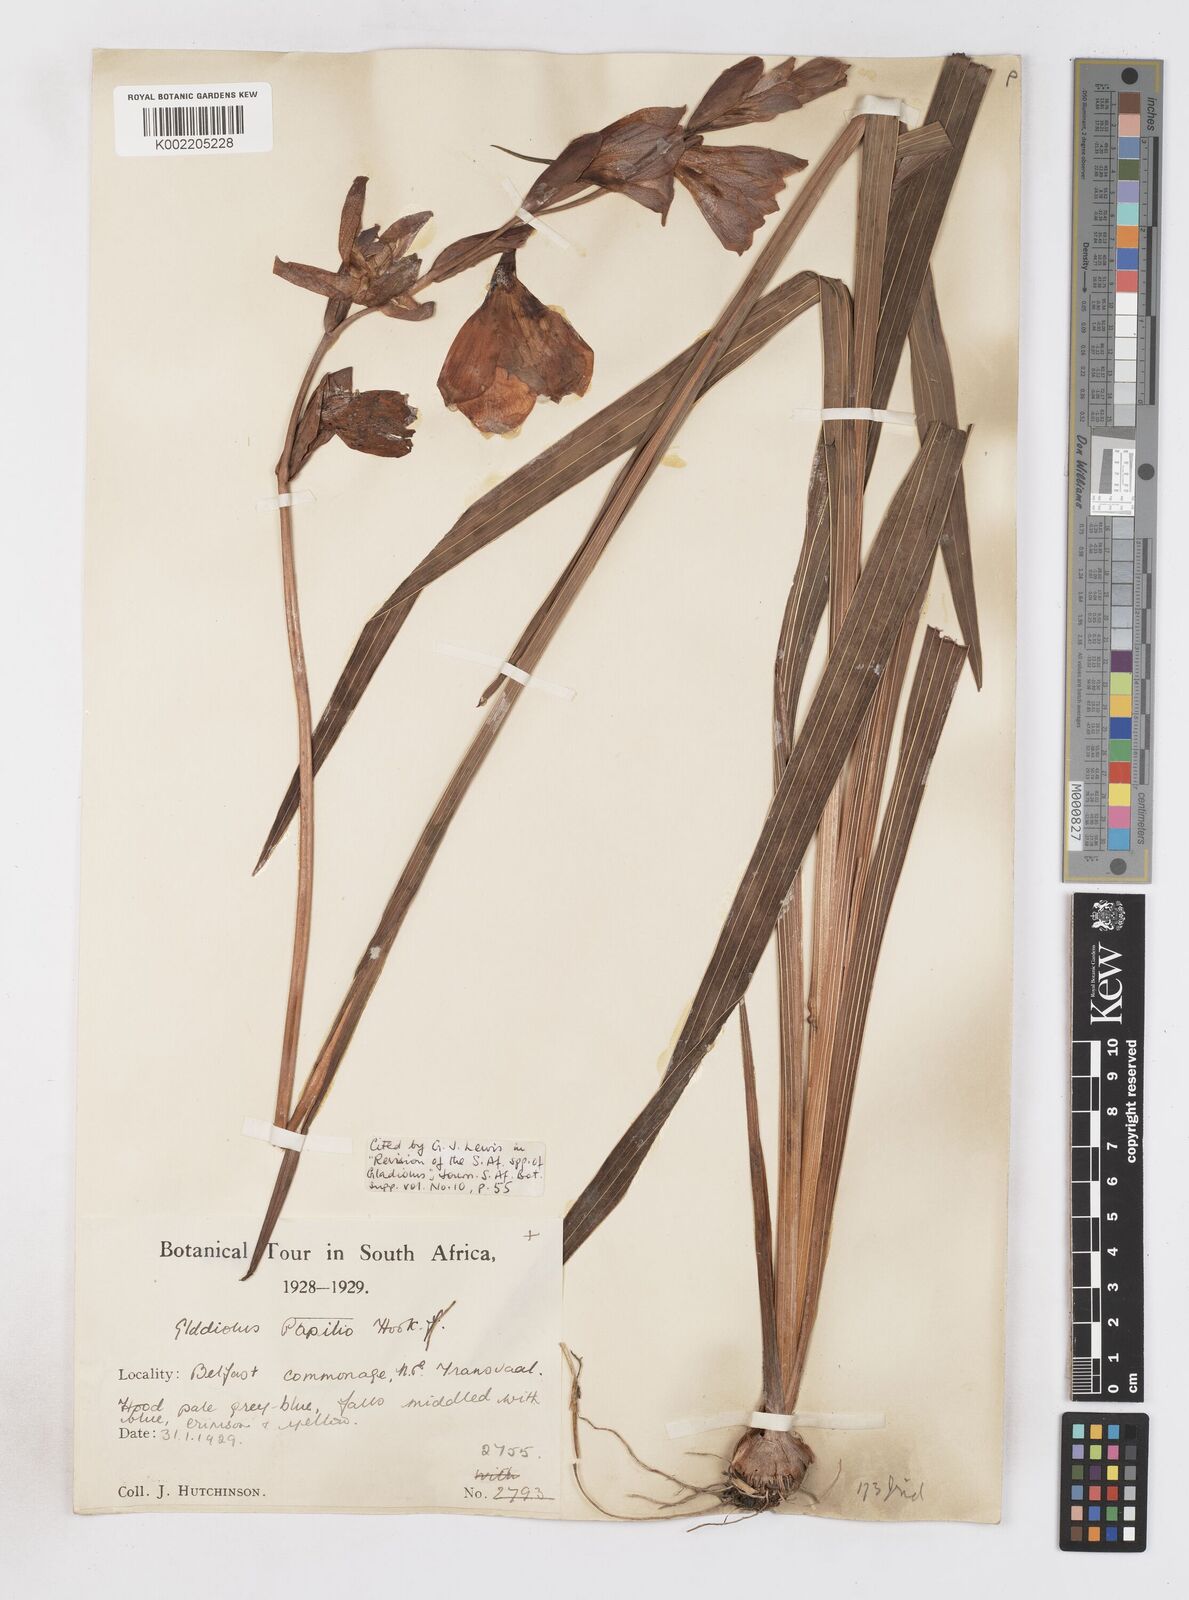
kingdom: Plantae
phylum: Tracheophyta
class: Liliopsida
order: Asparagales
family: Iridaceae
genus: Gladiolus
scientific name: Gladiolus papilio
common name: Goldblotch gladiolus
